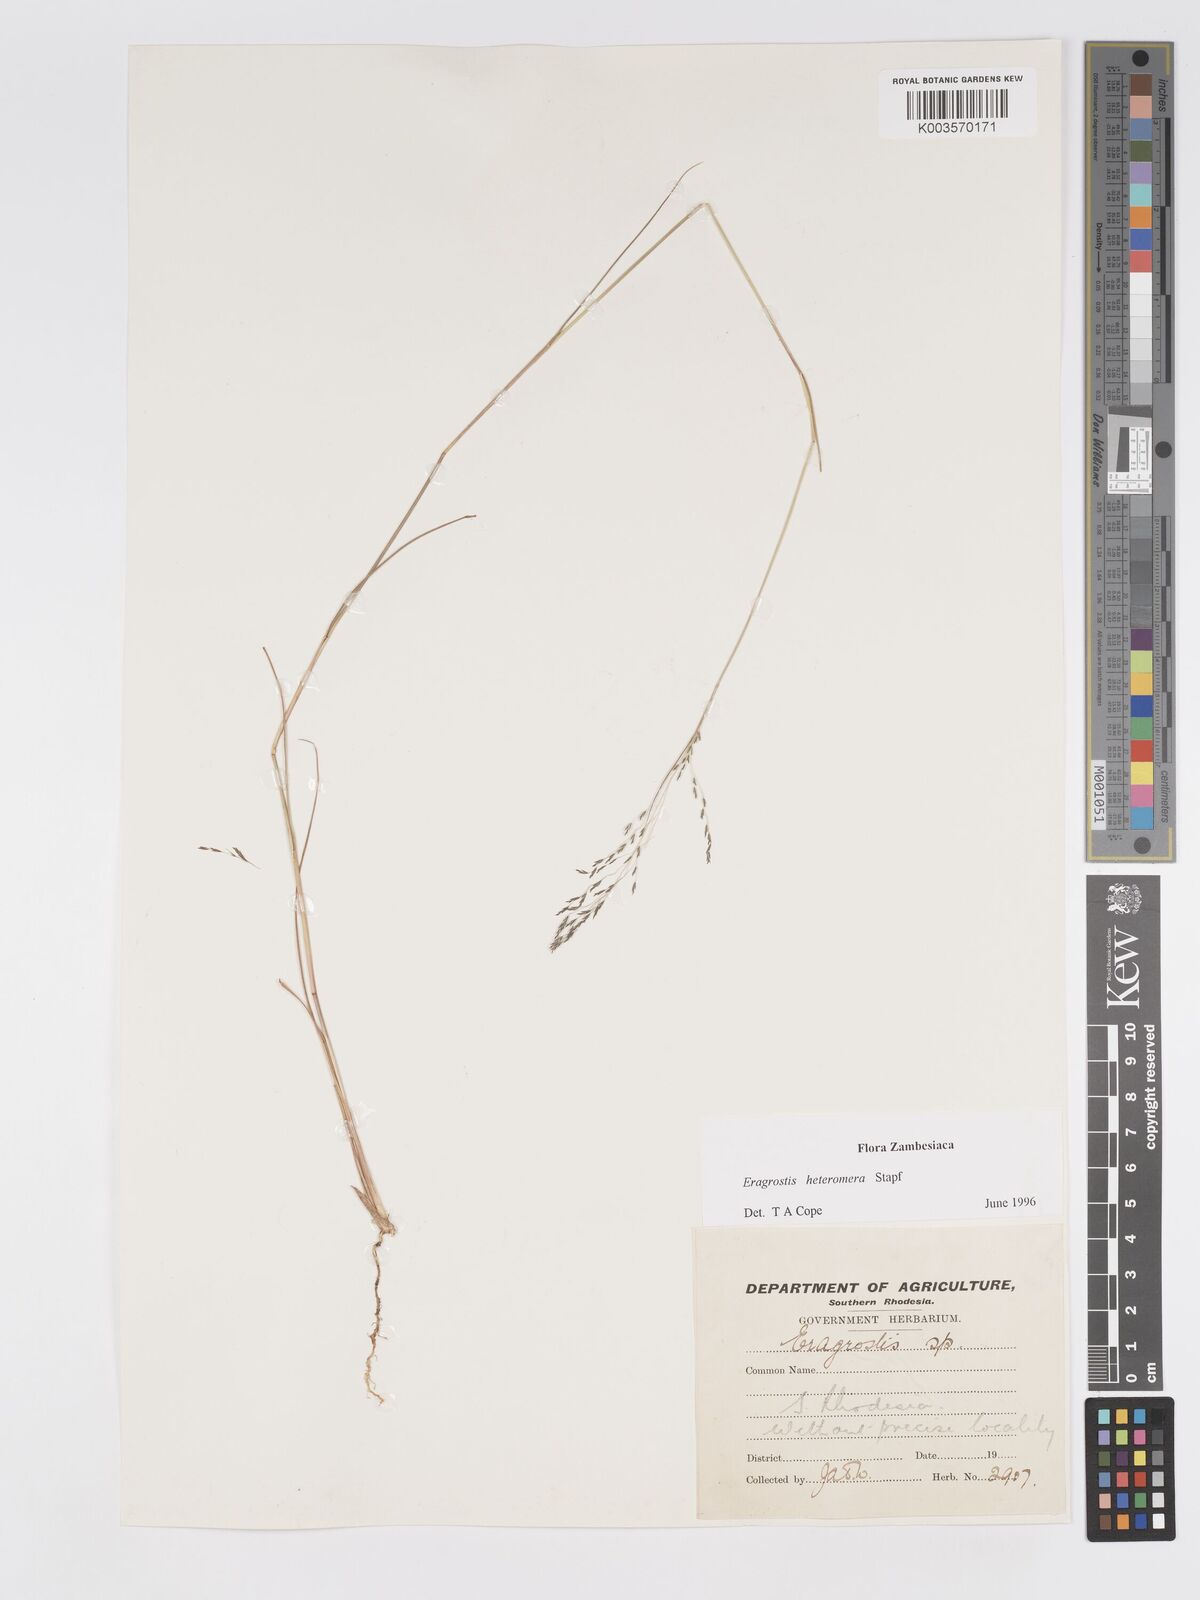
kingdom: Plantae
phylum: Tracheophyta
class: Liliopsida
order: Poales
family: Poaceae
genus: Eragrostis
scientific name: Eragrostis heteromera
